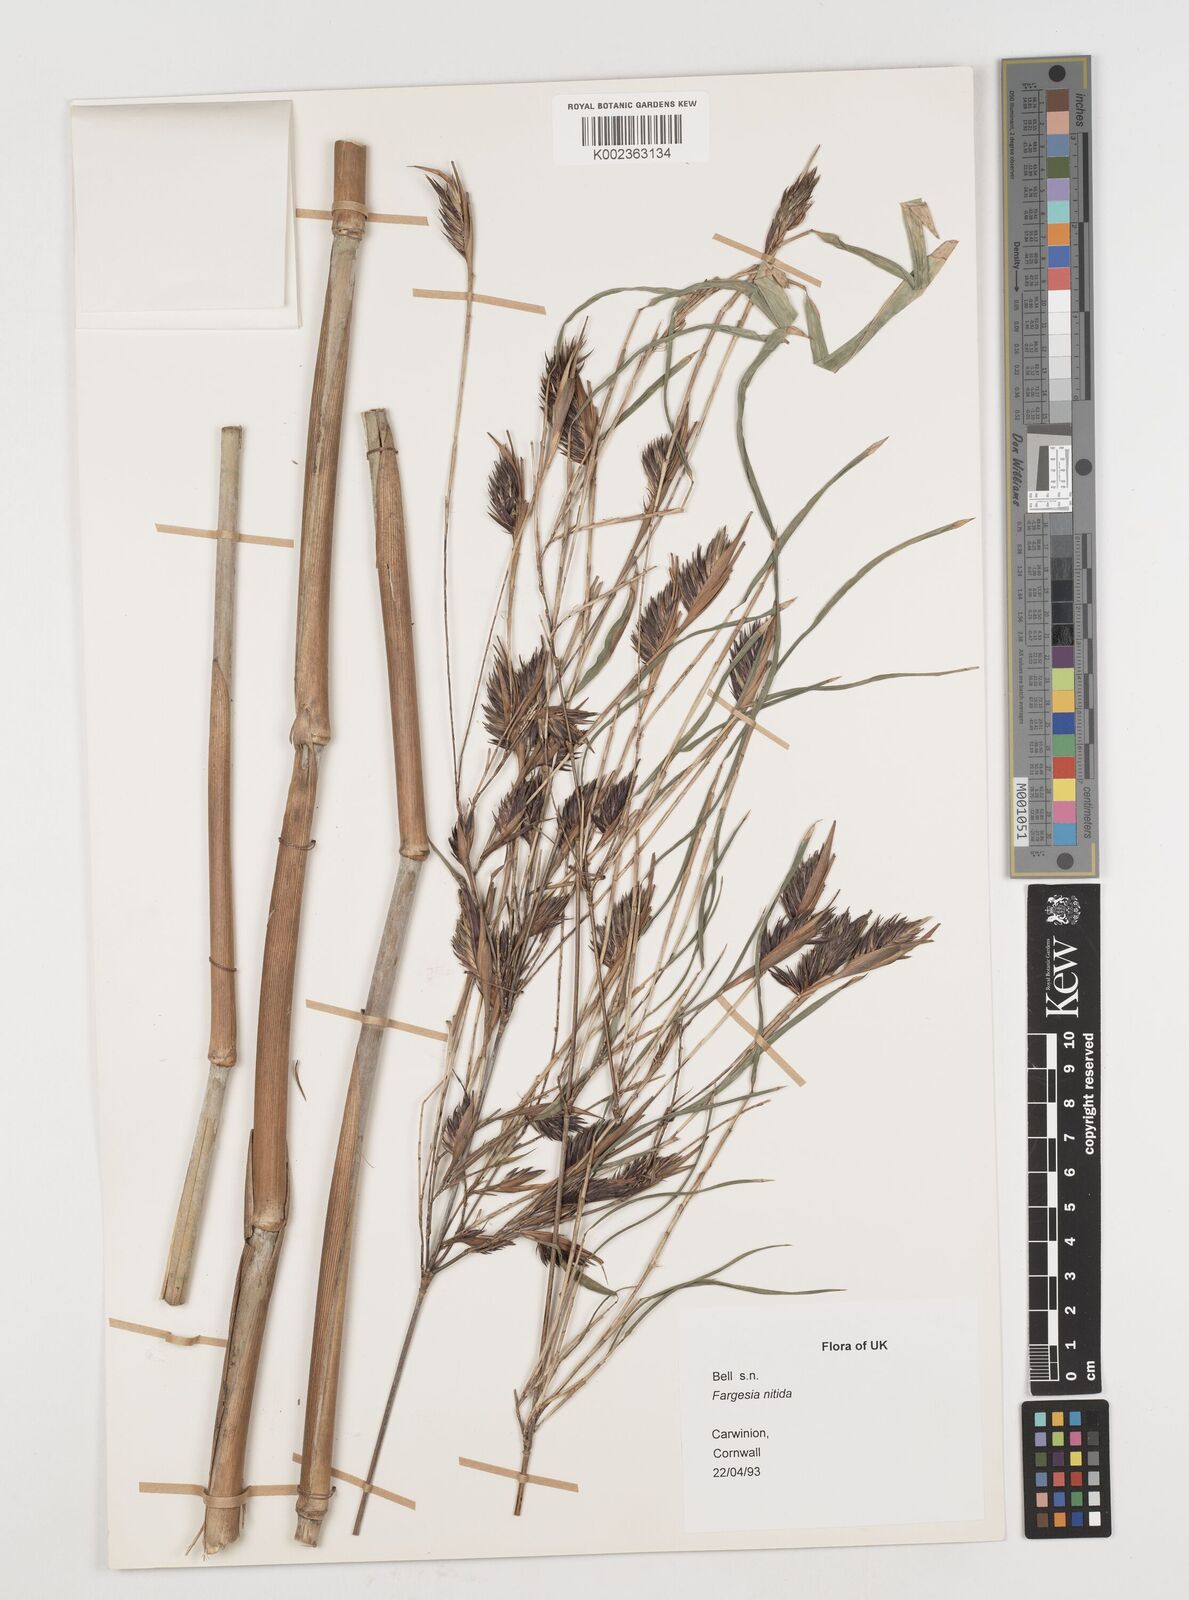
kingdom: Plantae
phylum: Tracheophyta
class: Liliopsida
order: Poales
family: Poaceae
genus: Fargesia
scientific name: Fargesia nitida ex
